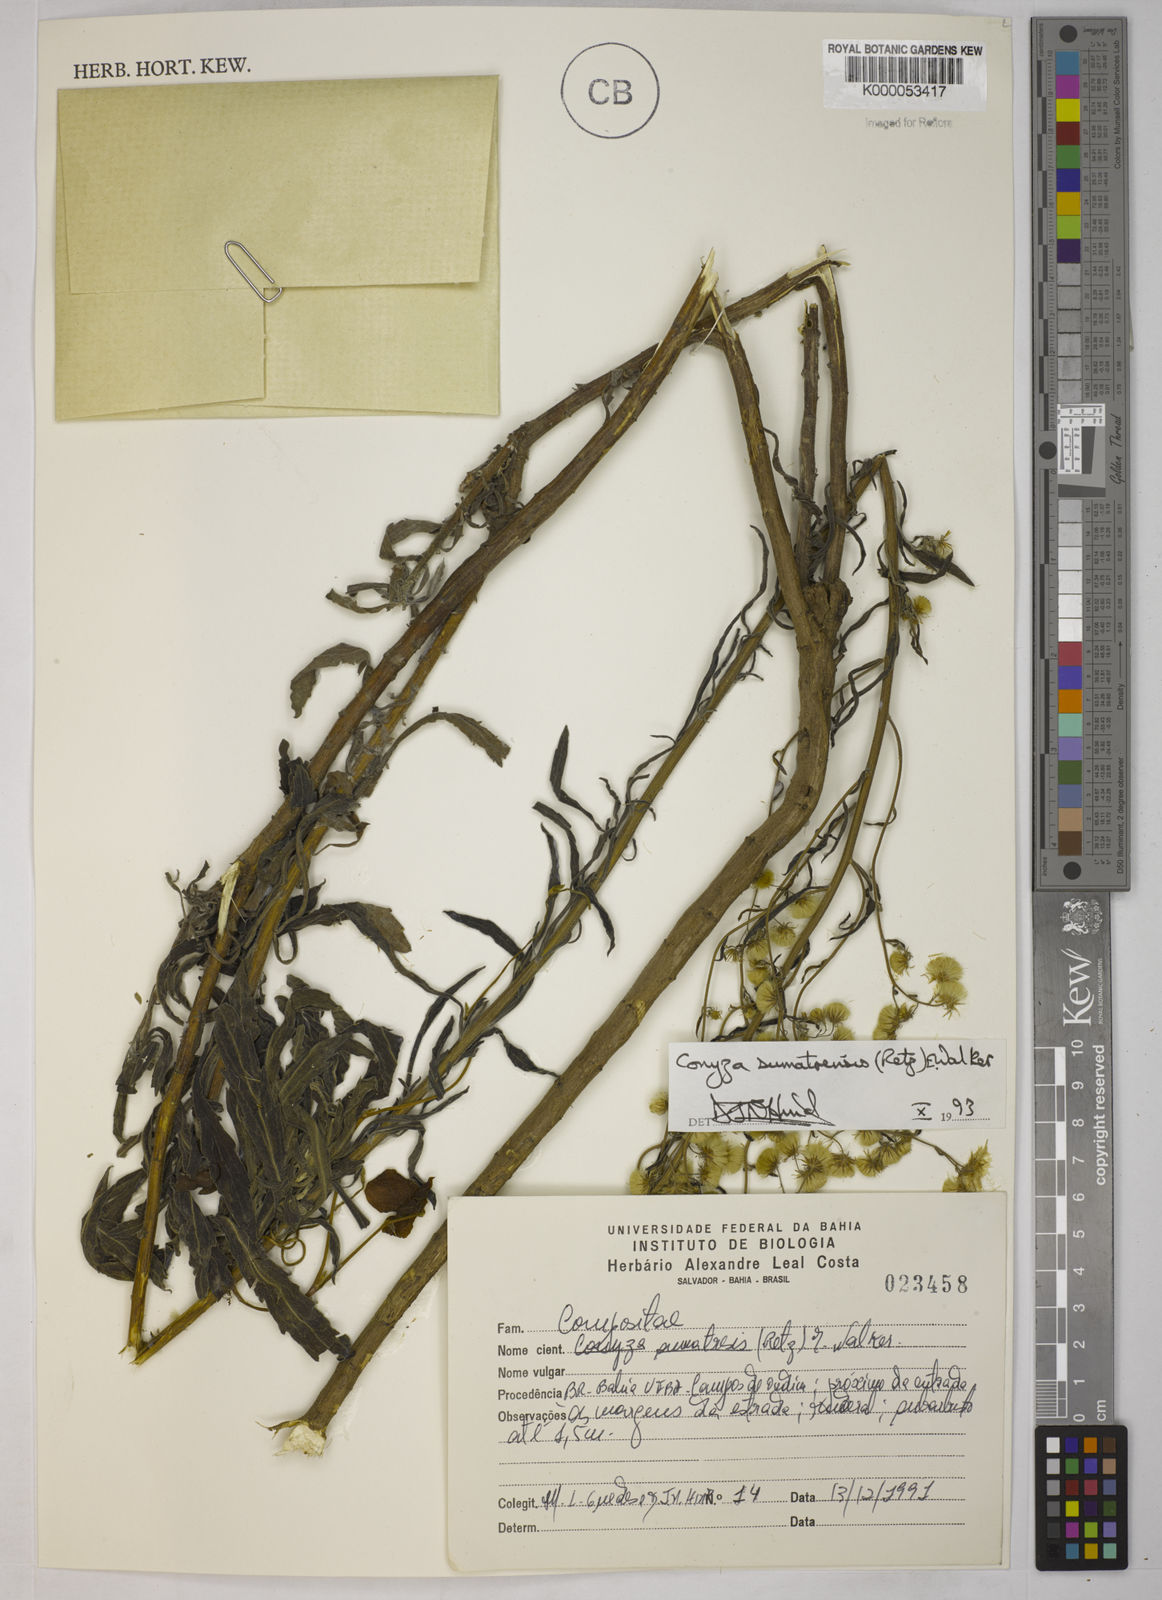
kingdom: Plantae
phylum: Tracheophyta
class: Magnoliopsida
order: Asterales
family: Asteraceae
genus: Erigeron
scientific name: Erigeron sumatrensis
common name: Daisy
